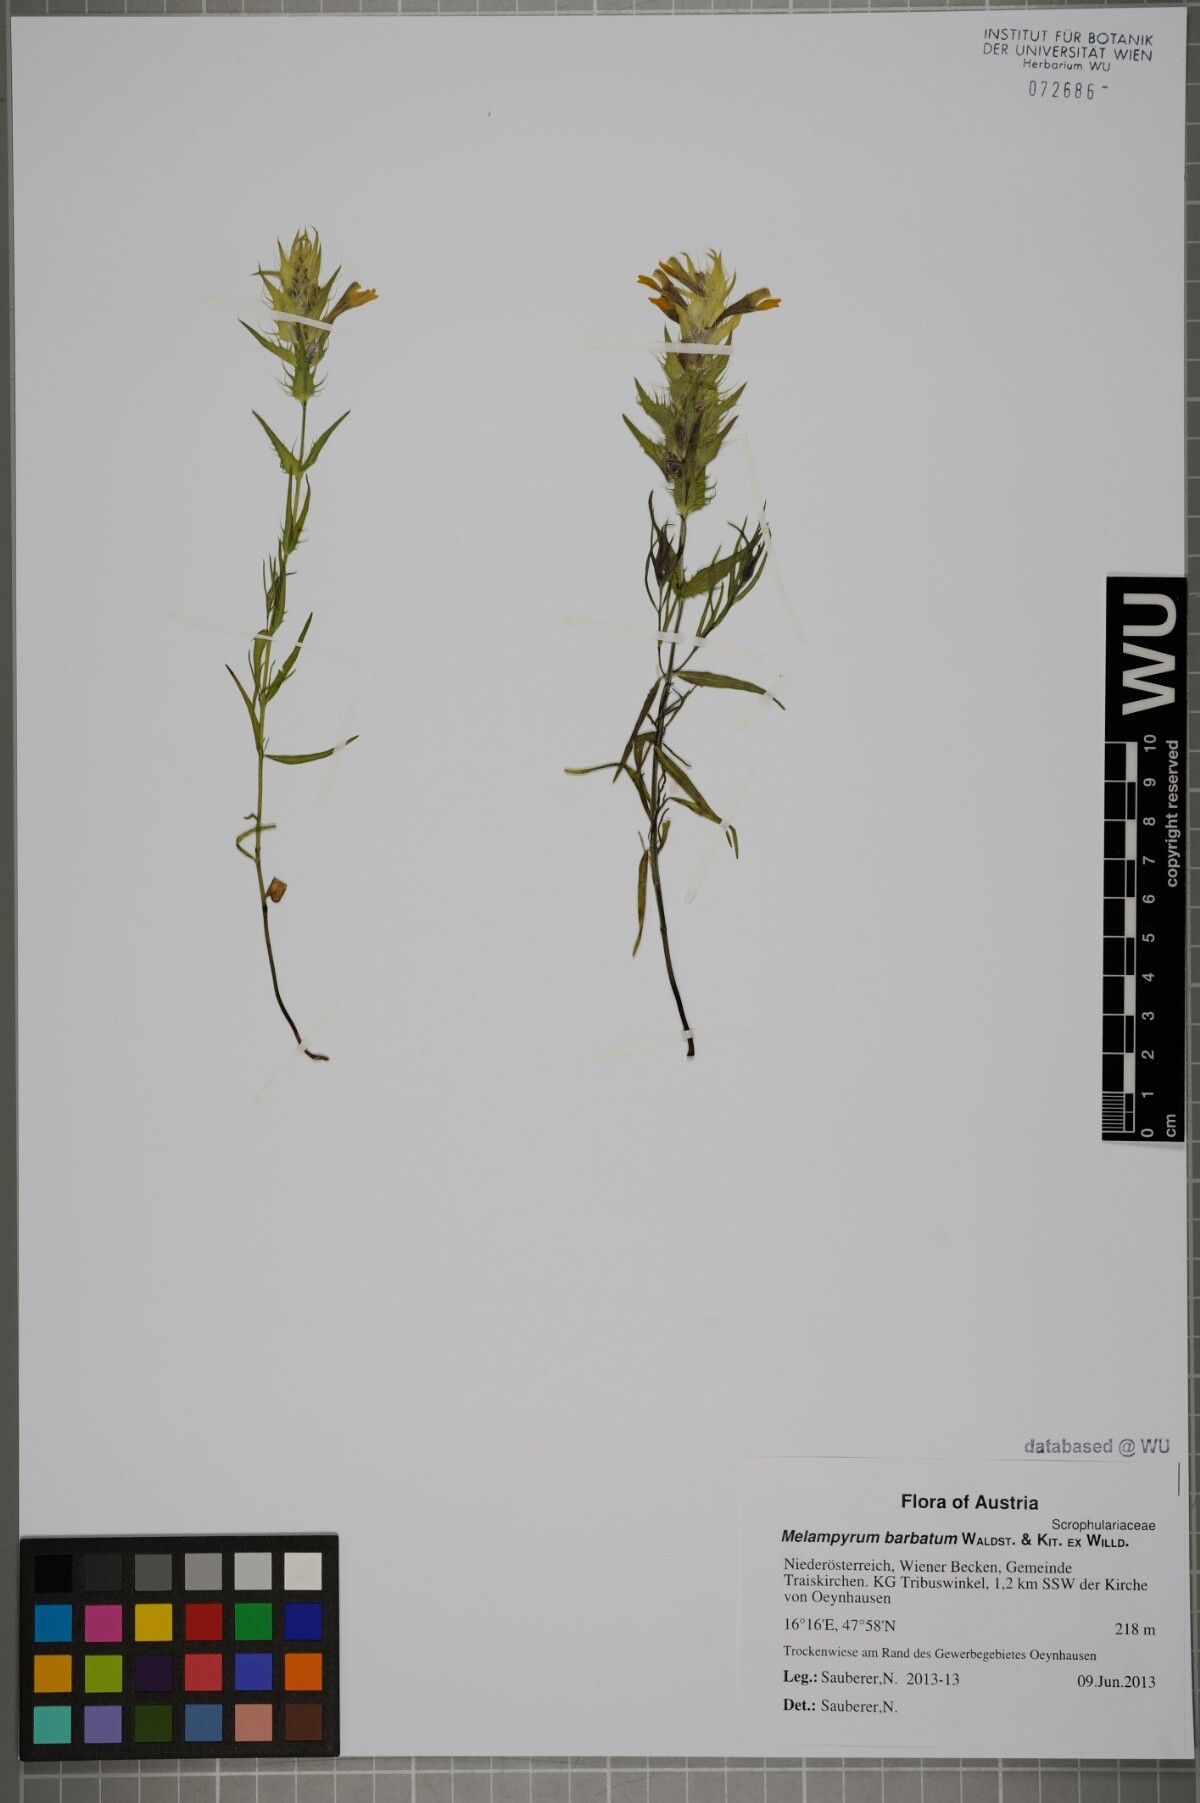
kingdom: Plantae
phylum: Tracheophyta
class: Magnoliopsida
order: Lamiales
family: Orobanchaceae
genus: Melampyrum
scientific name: Melampyrum barbatum
